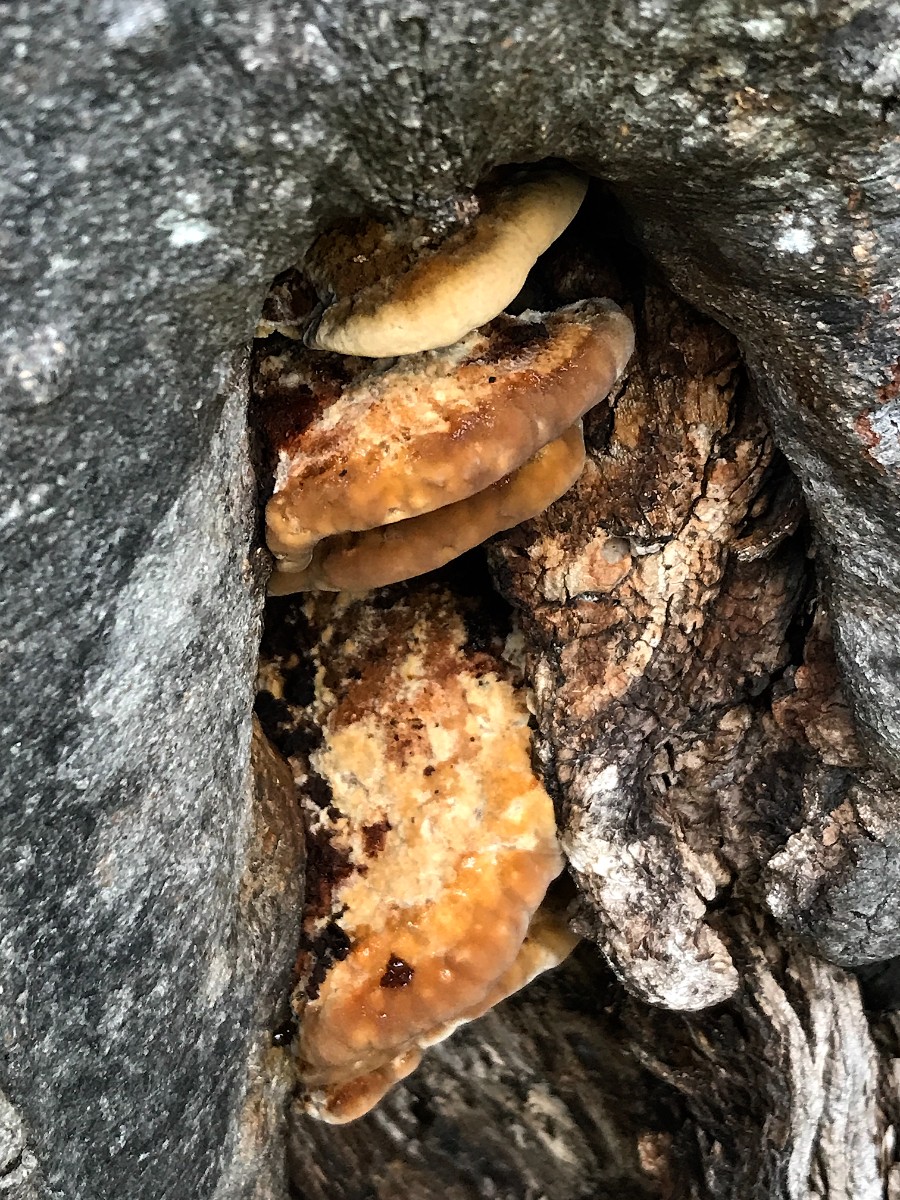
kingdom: Fungi
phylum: Basidiomycota
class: Agaricomycetes
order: Hymenochaetales
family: Hymenochaetaceae
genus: Inonotus
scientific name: Inonotus cuticularis
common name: kroghåret spejlporesvamp
